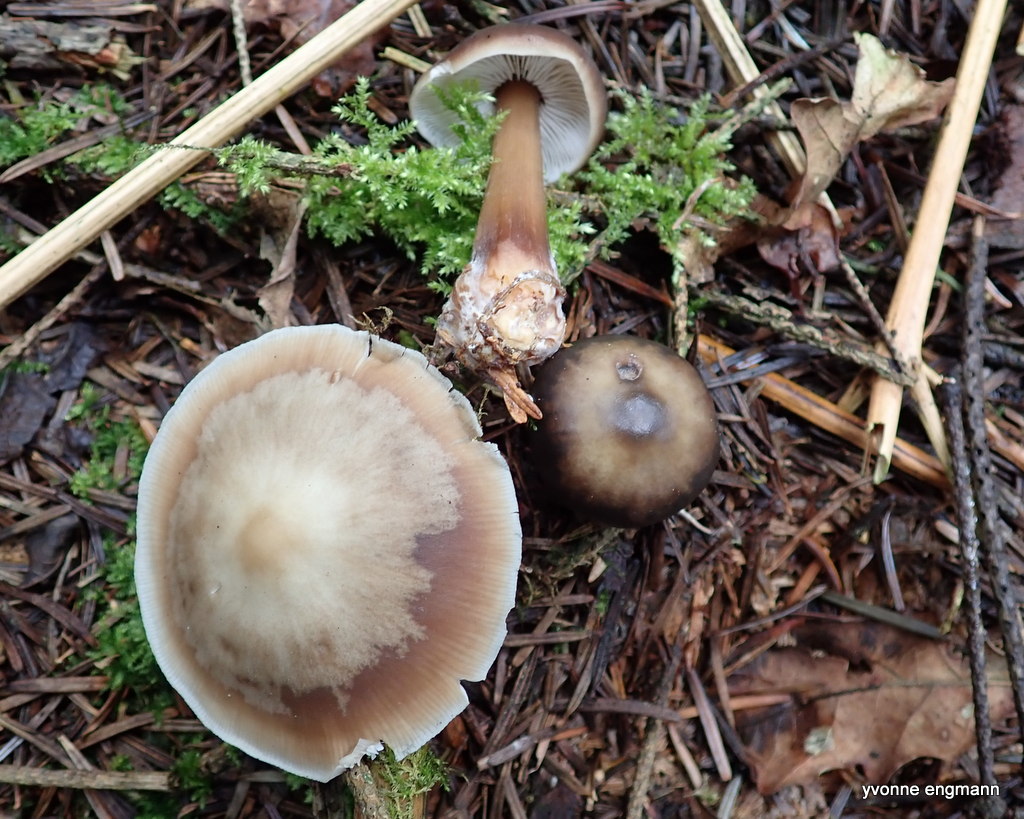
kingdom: Fungi
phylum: Basidiomycota
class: Agaricomycetes
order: Agaricales
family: Omphalotaceae
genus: Rhodocollybia
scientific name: Rhodocollybia asema
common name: horngrå fladhat
